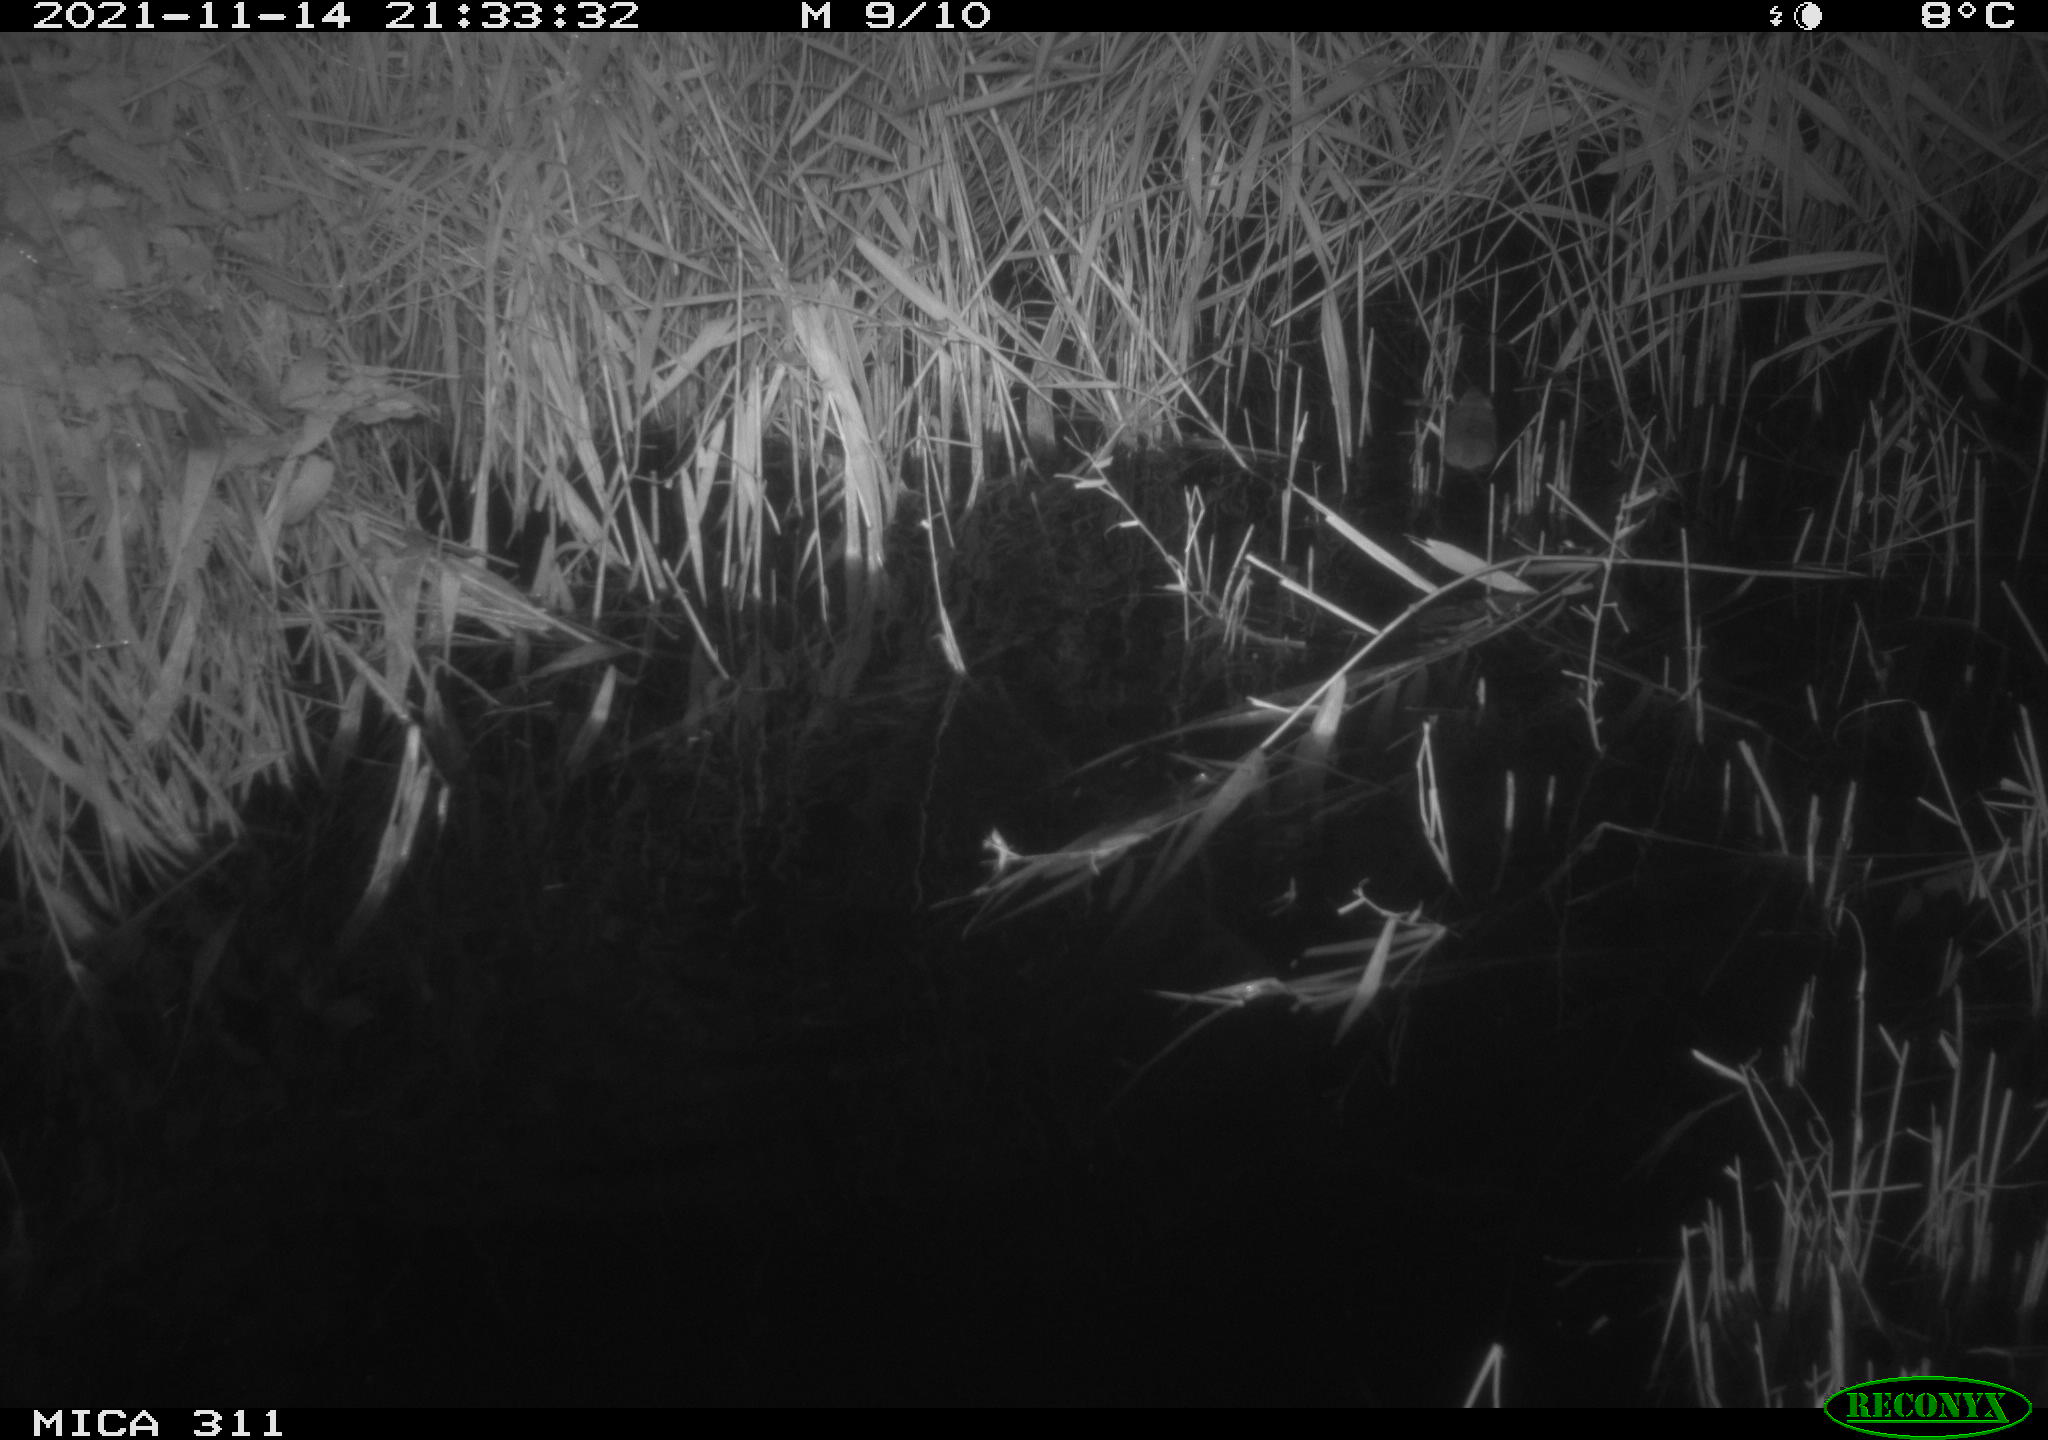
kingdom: Animalia
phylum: Chordata
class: Mammalia
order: Rodentia
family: Muridae
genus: Rattus
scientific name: Rattus norvegicus
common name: Brown rat
